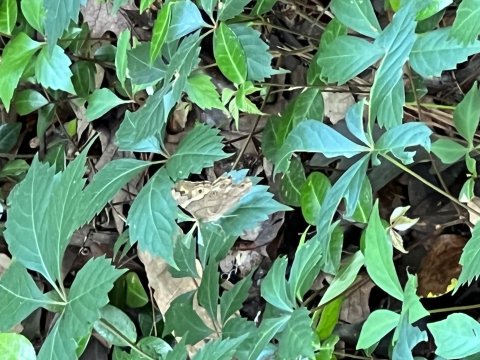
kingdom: Animalia
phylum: Arthropoda
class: Insecta
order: Lepidoptera
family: Nymphalidae
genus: Enodia
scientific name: Enodia portlandia
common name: Southern Pearly Eye
